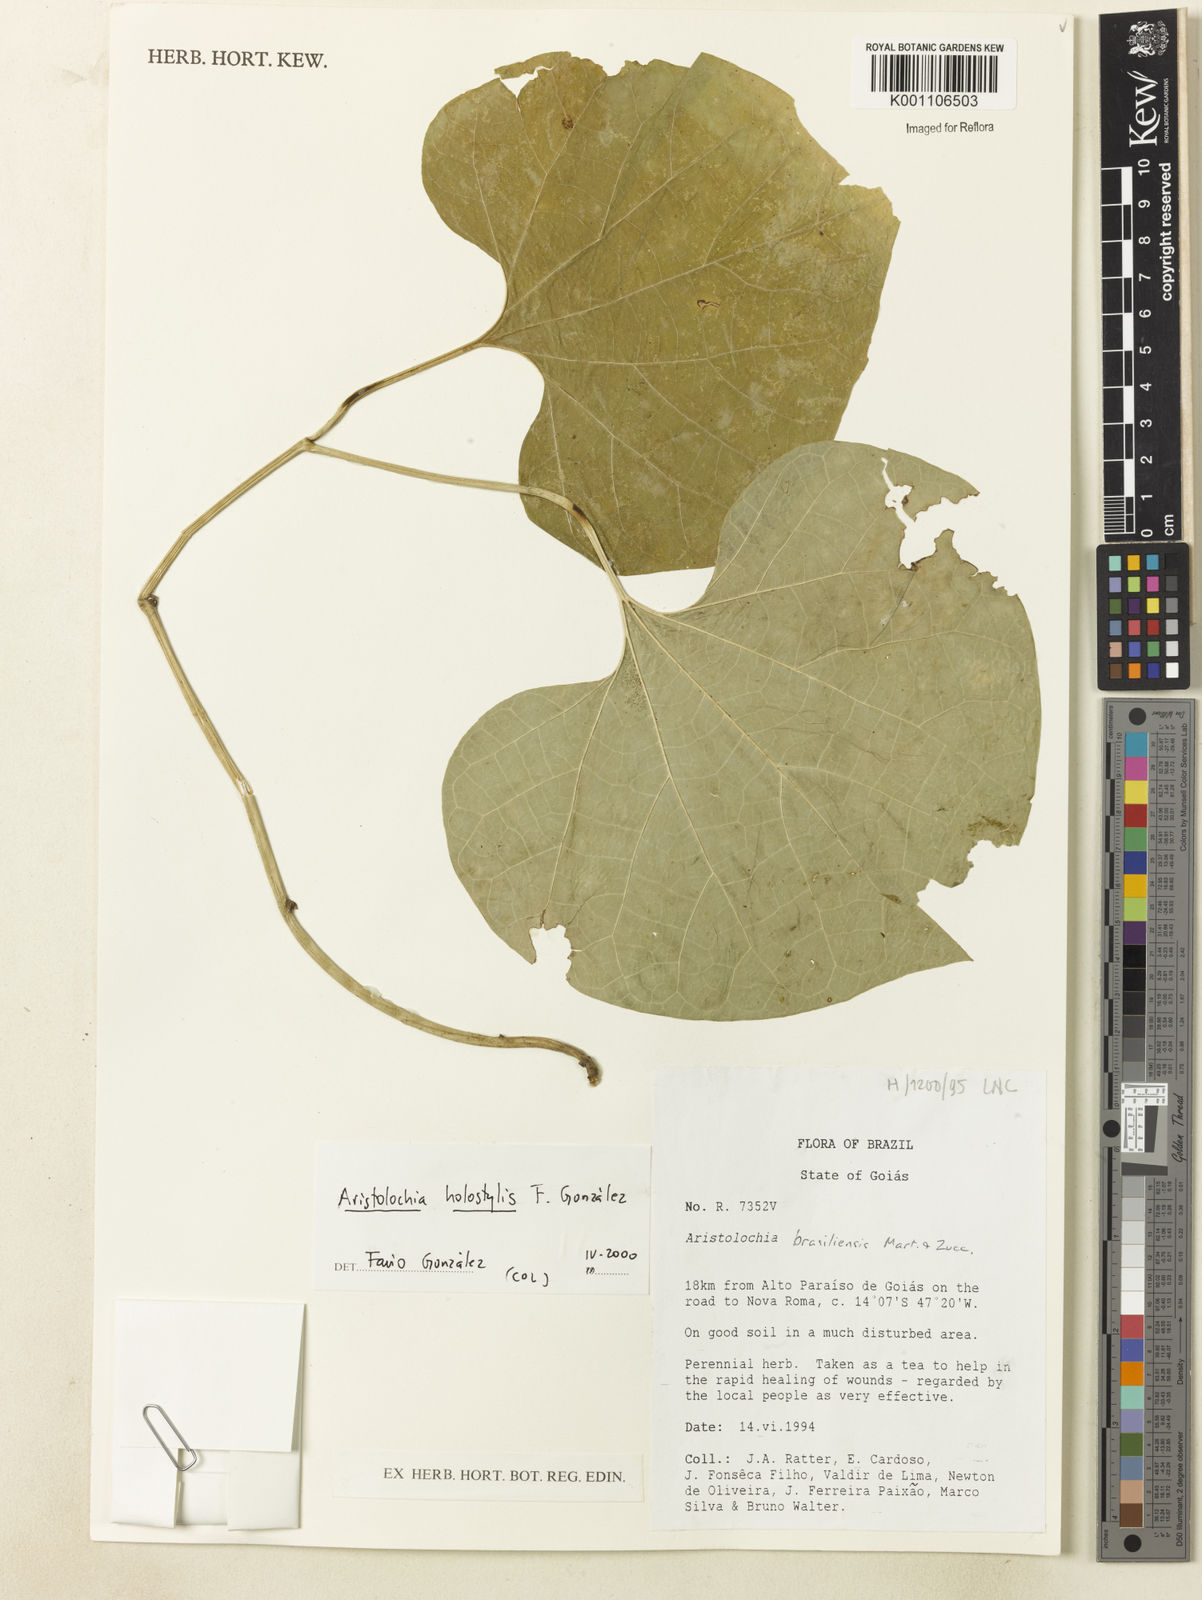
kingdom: Plantae
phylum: Tracheophyta
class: Magnoliopsida
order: Piperales
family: Aristolochiaceae
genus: Aristolochia
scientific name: Aristolochia
